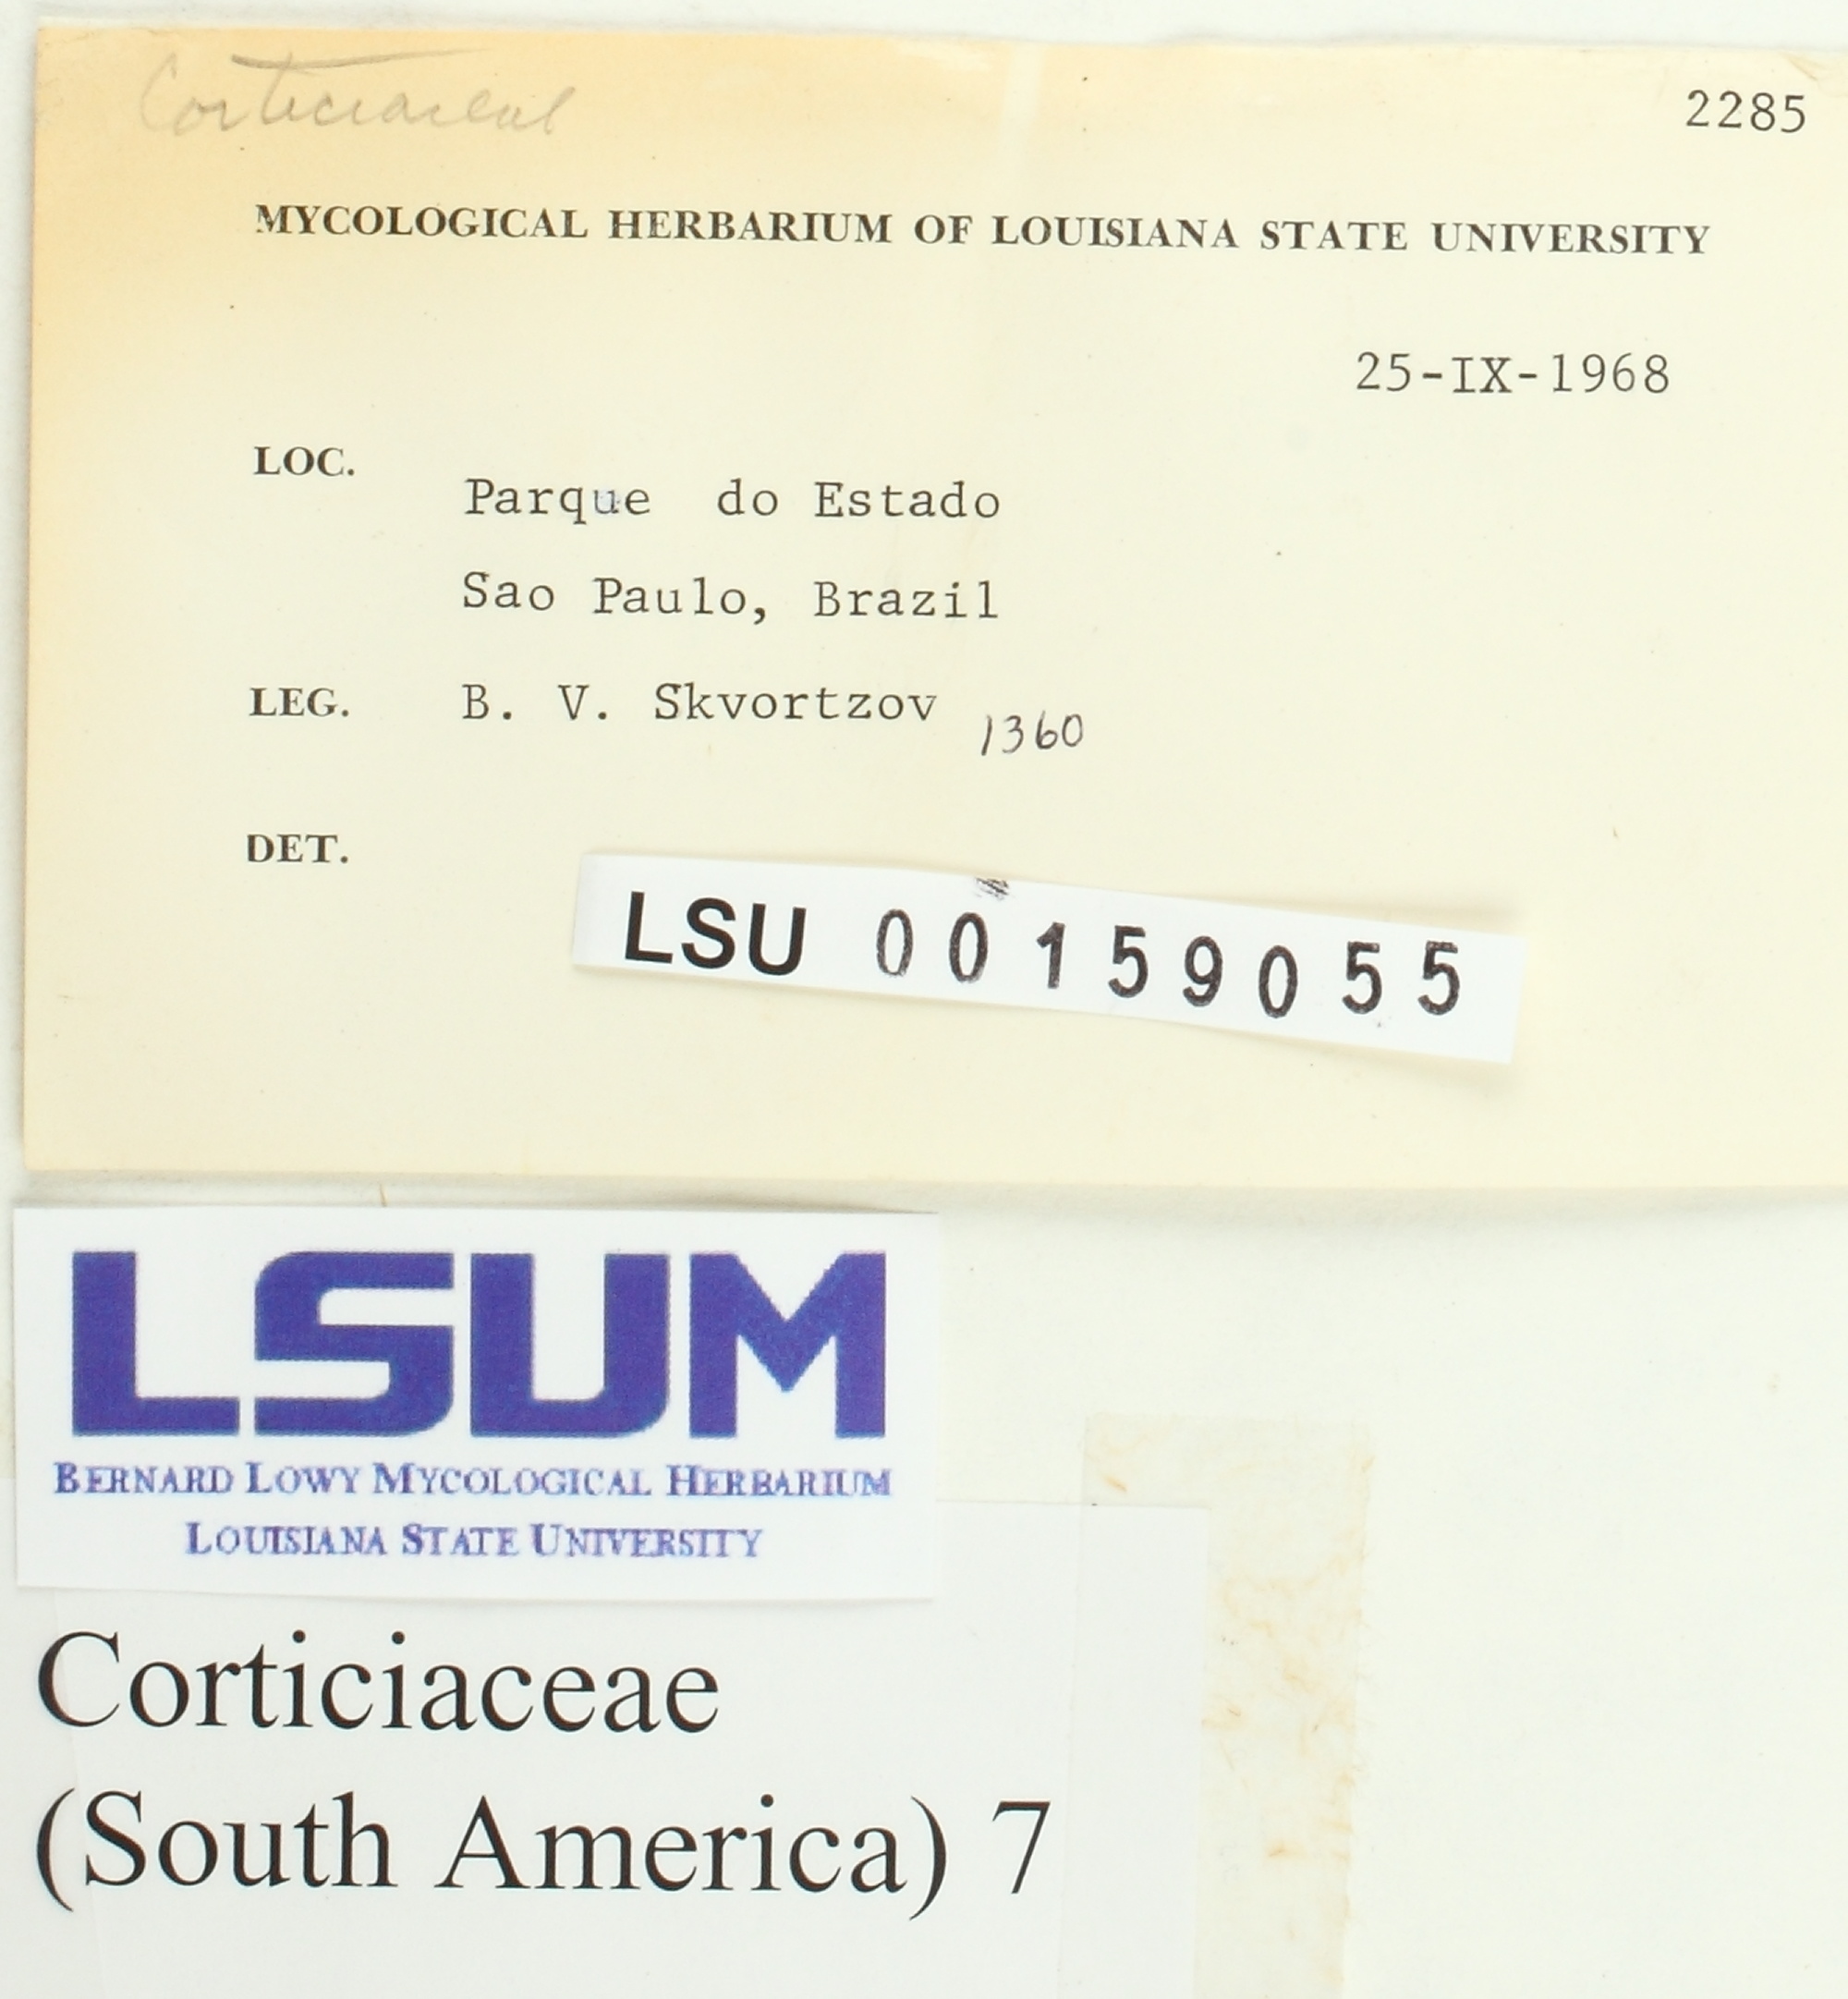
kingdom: Fungi
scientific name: Fungi
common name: Fungi
